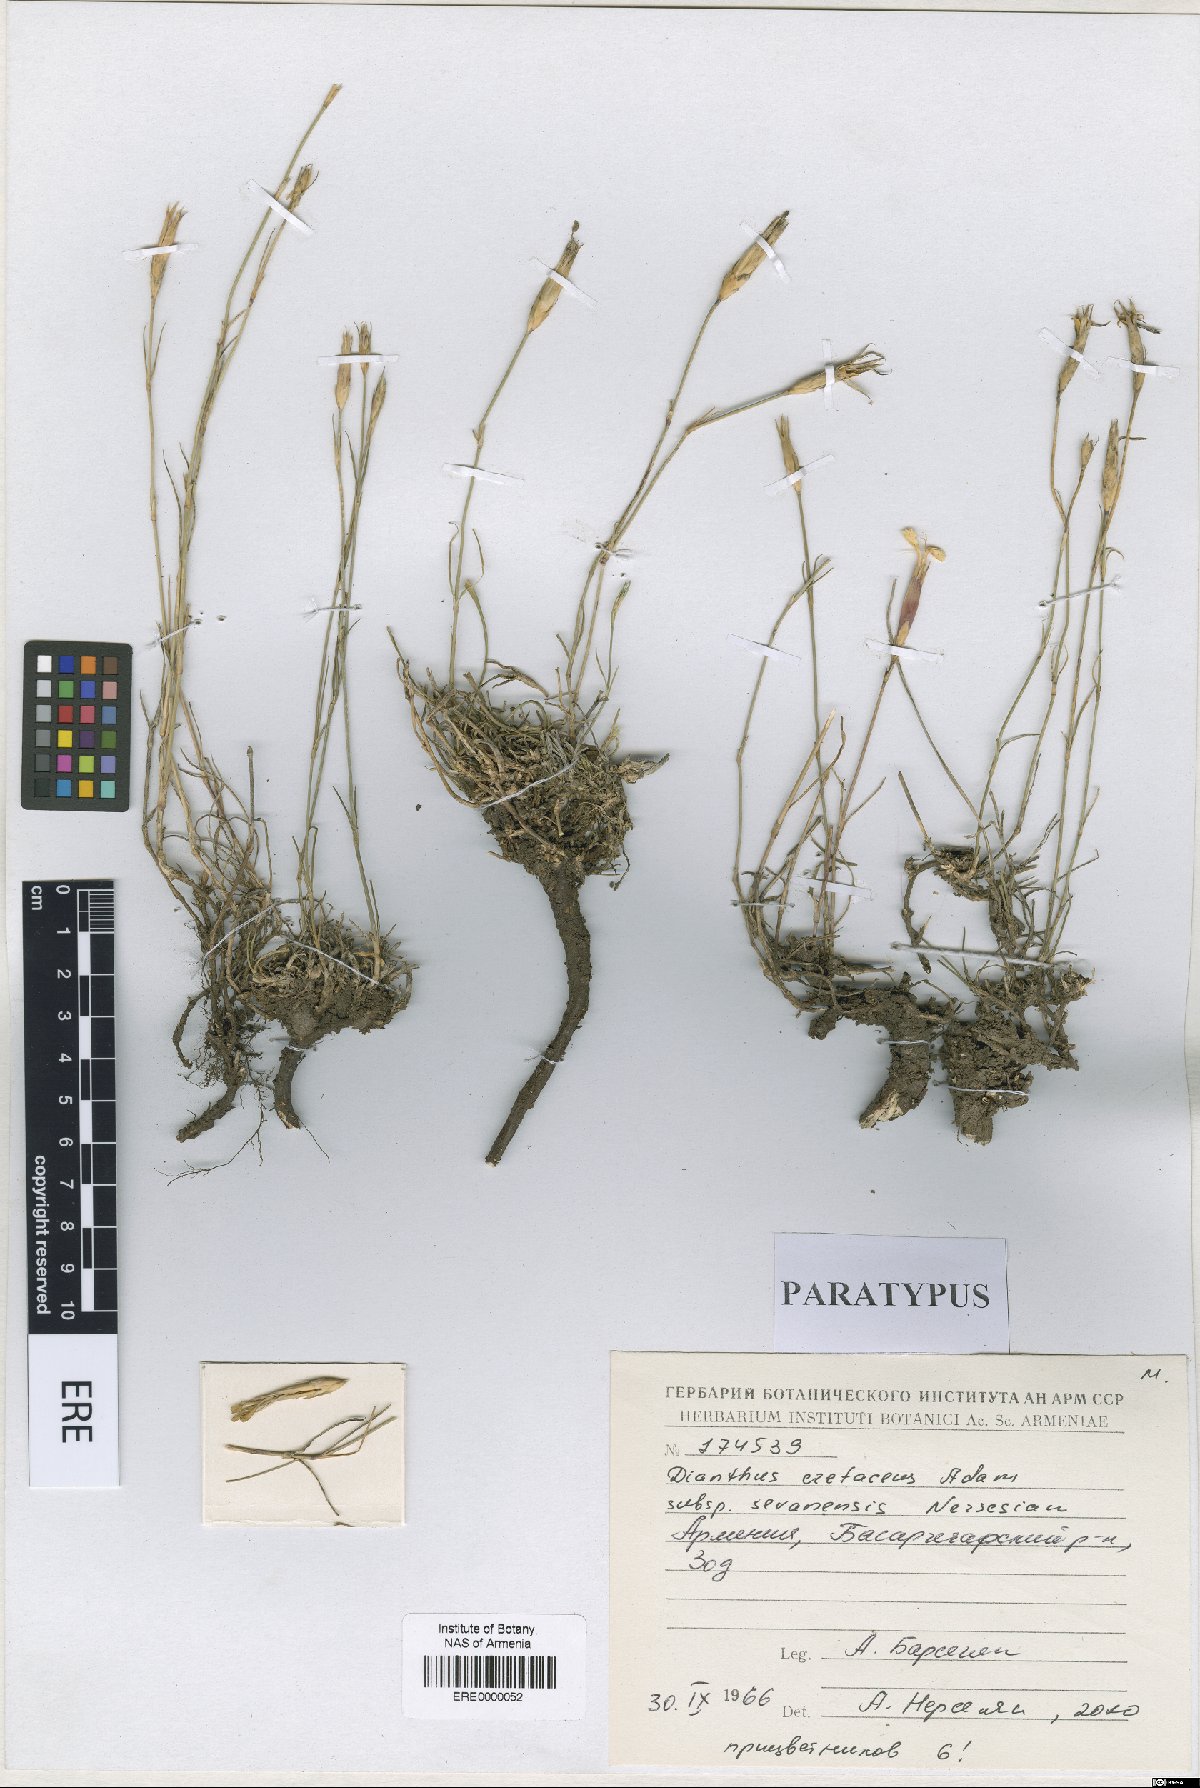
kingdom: Plantae
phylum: Tracheophyta
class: Magnoliopsida
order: Caryophyllales
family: Caryophyllaceae
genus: Dianthus
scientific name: Dianthus cretaceus
